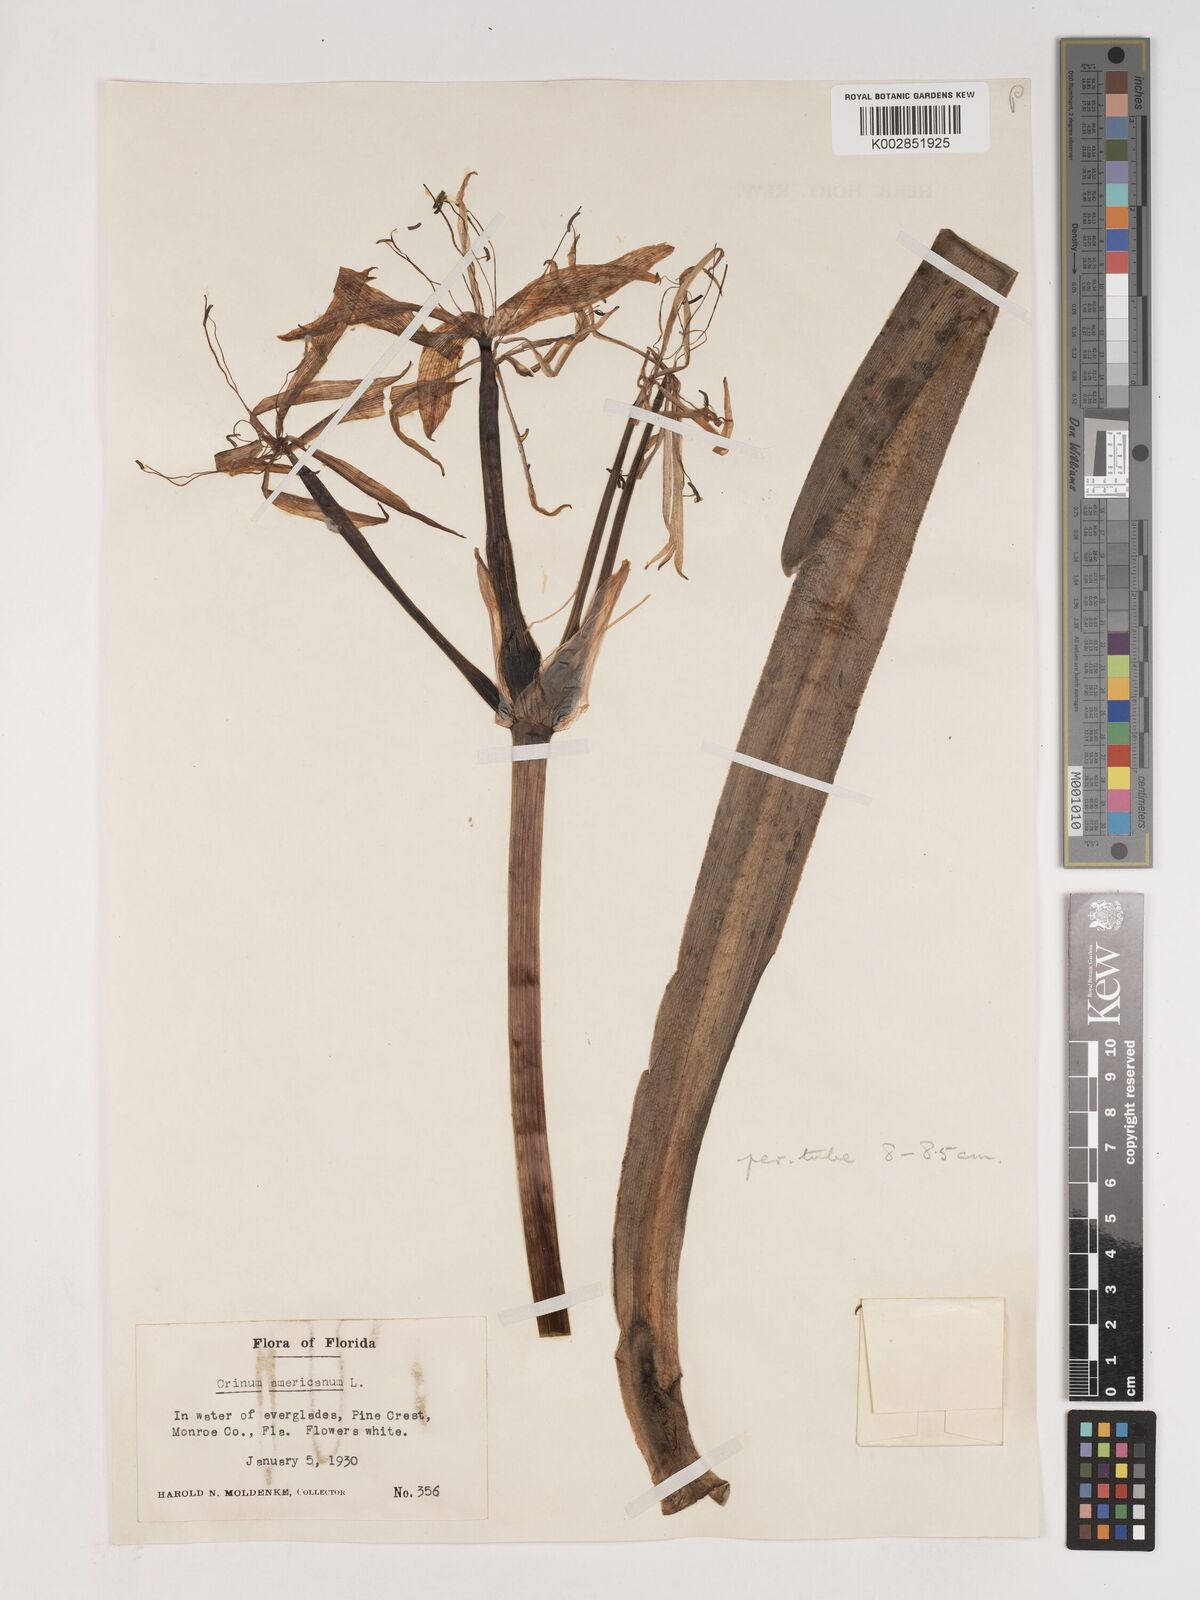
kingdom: Plantae
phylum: Tracheophyta
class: Liliopsida
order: Asparagales
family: Amaryllidaceae
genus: Crinum
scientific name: Crinum americanum
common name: Florida swamp-lily
